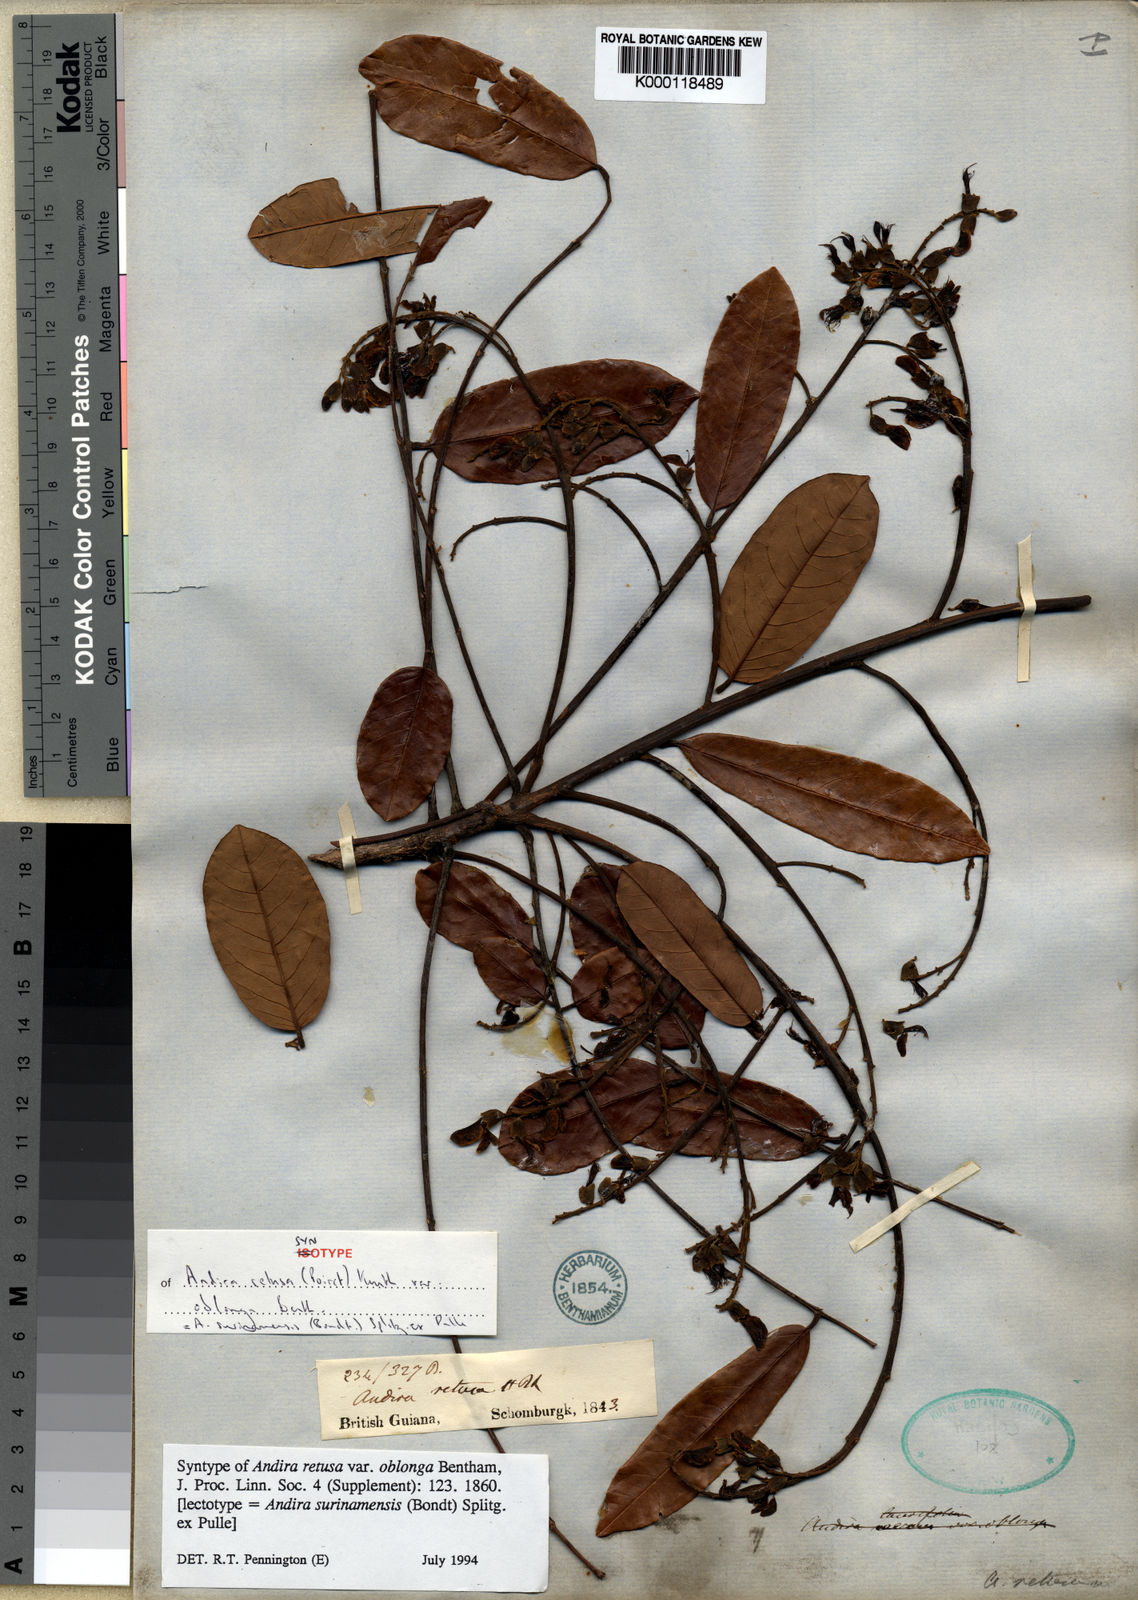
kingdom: Plantae
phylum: Tracheophyta
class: Magnoliopsida
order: Fabales
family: Fabaceae
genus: Andira
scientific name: Andira
